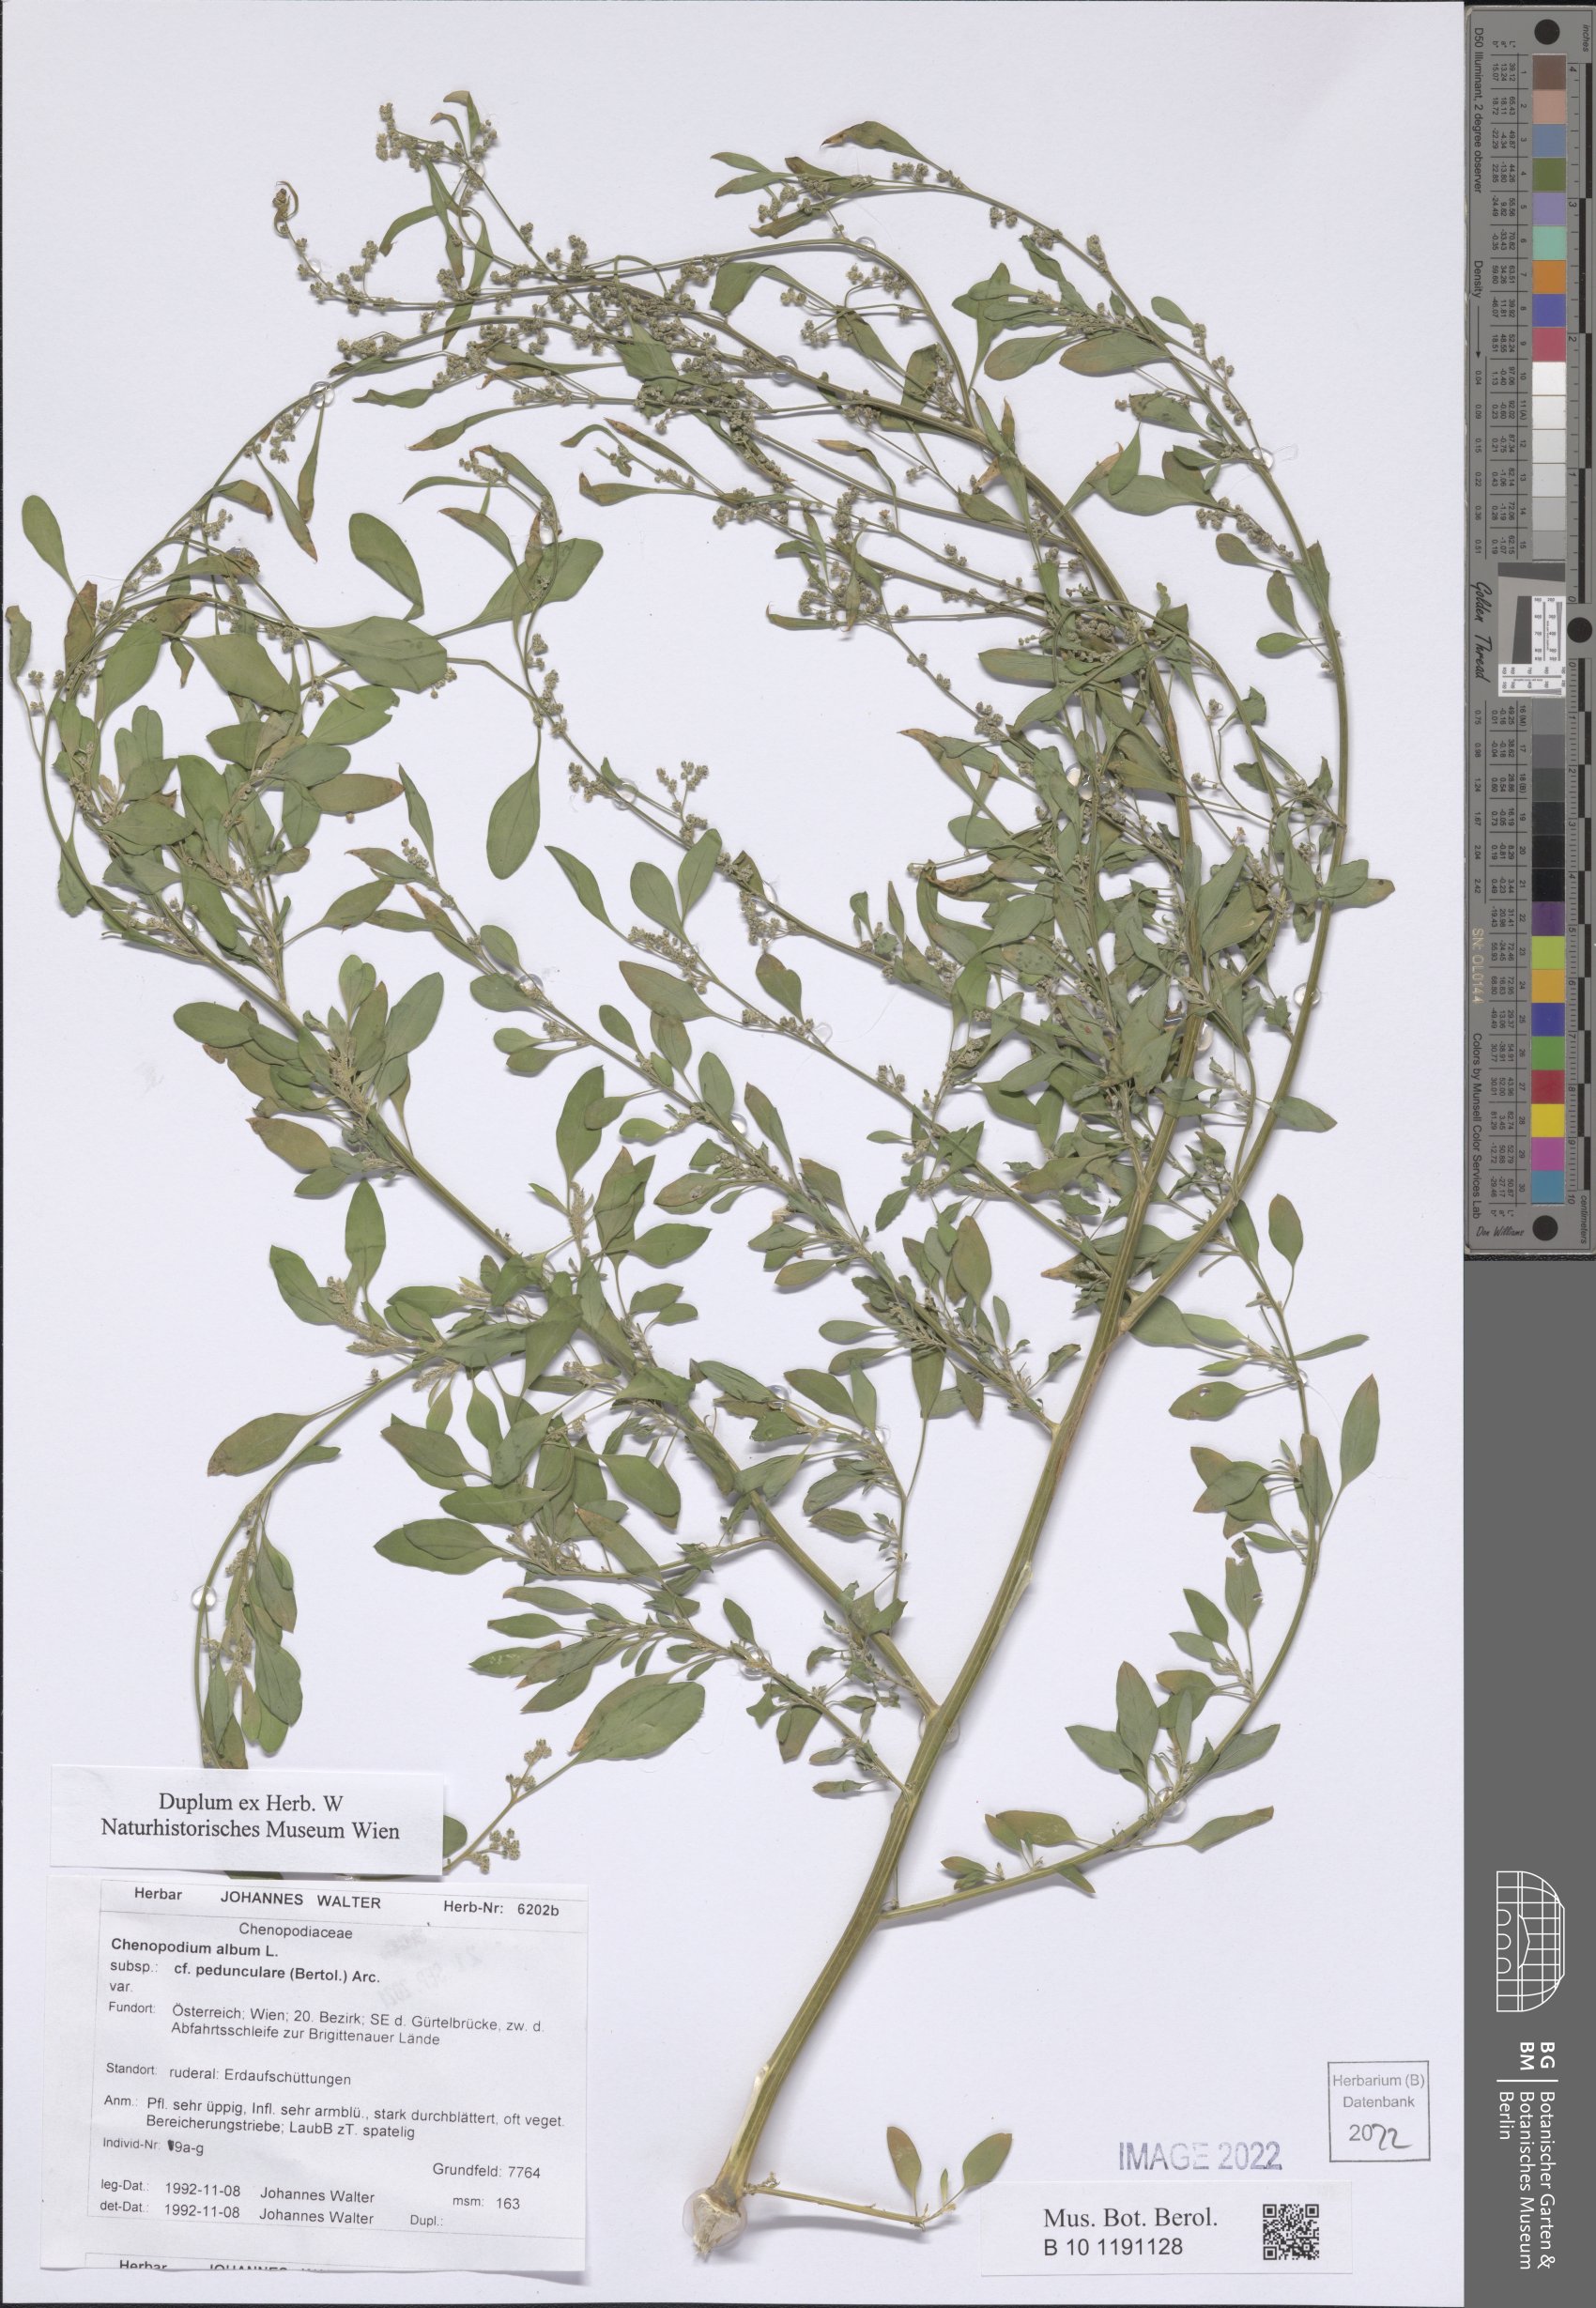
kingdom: Plantae
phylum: Tracheophyta
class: Magnoliopsida
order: Caryophyllales
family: Amaranthaceae
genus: Chenopodium
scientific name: Chenopodium album
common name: Fat-hen
